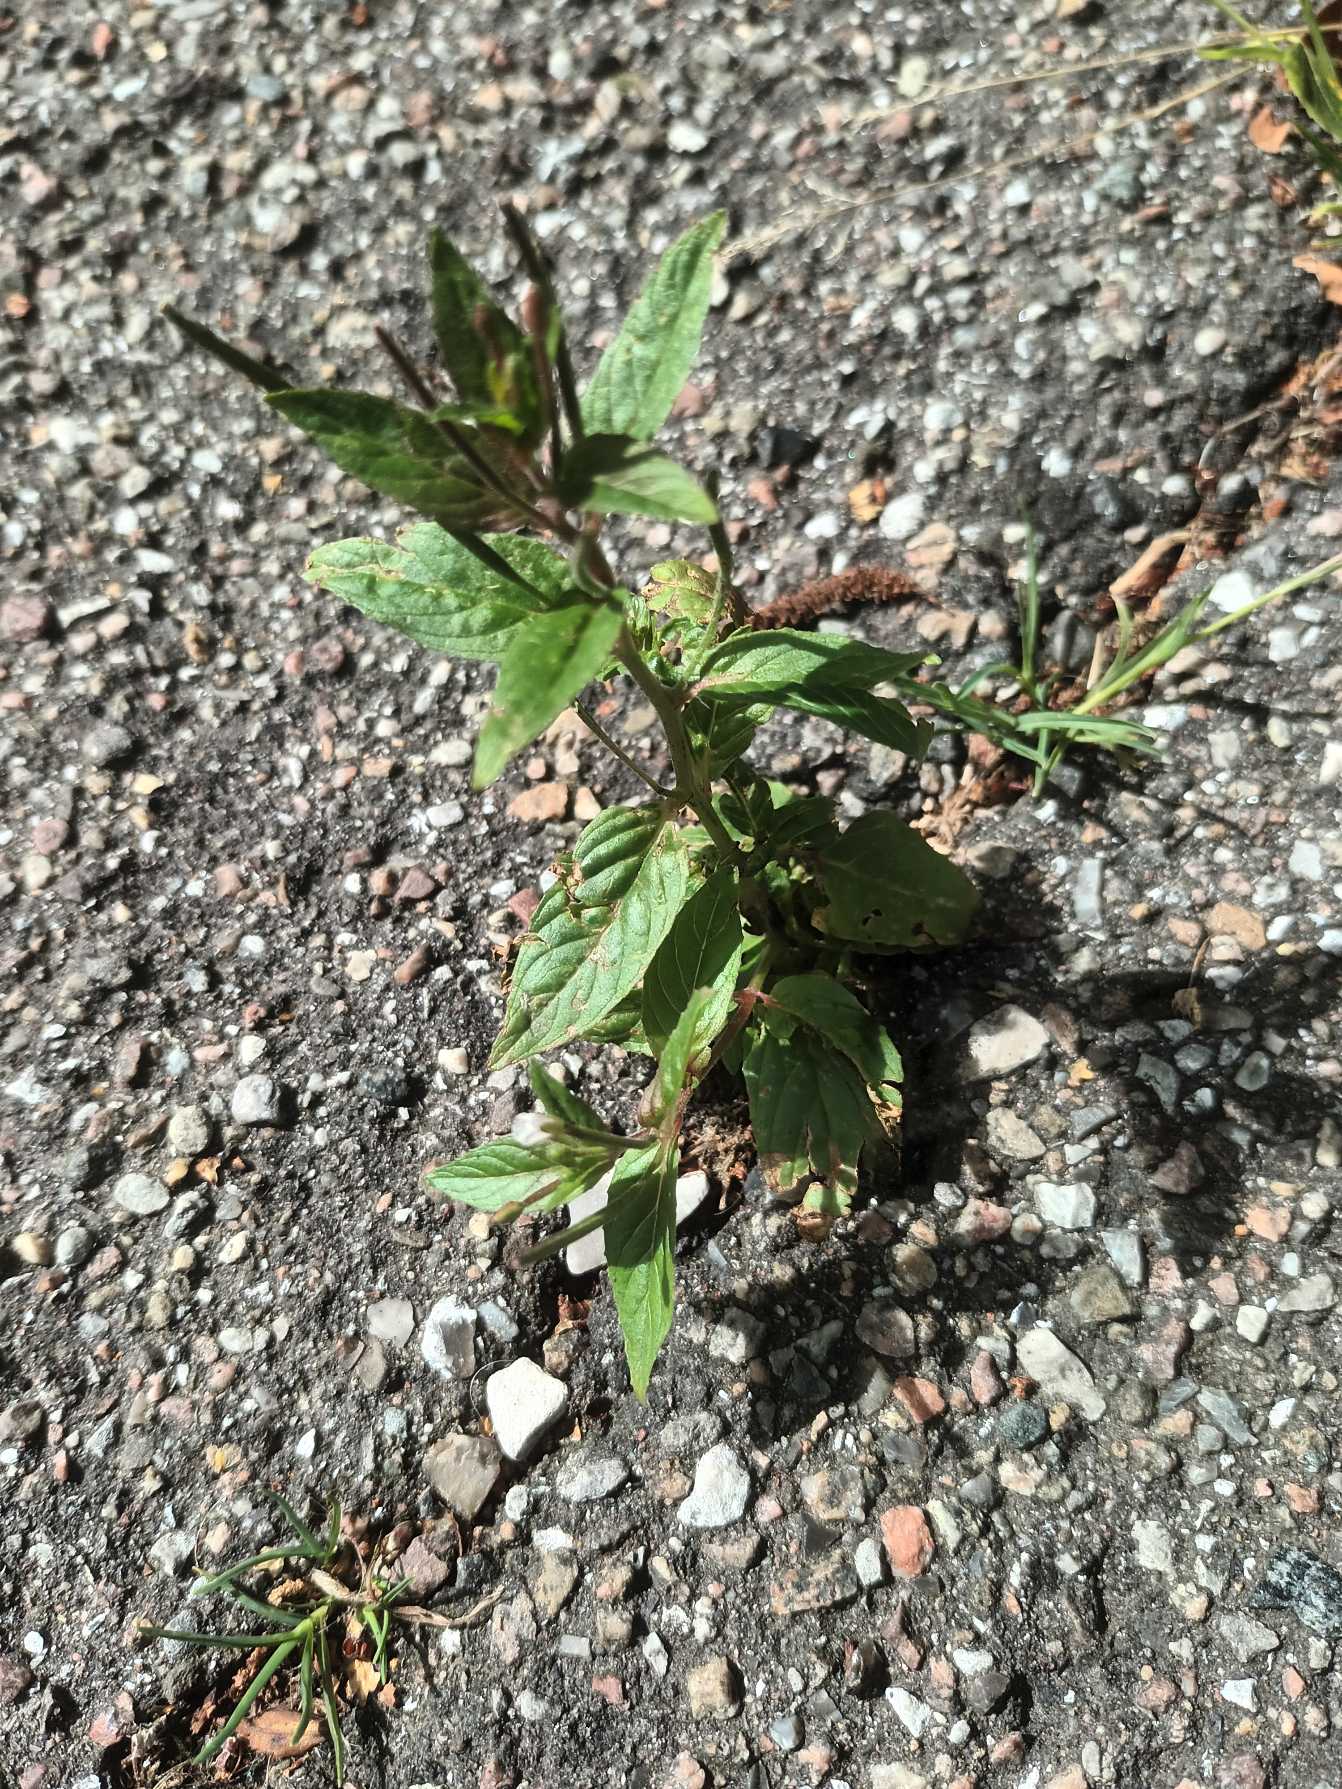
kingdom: Plantae
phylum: Tracheophyta
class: Magnoliopsida
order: Myrtales
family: Onagraceae
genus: Epilobium
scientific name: Epilobium roseum
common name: Rosen-dueurt
